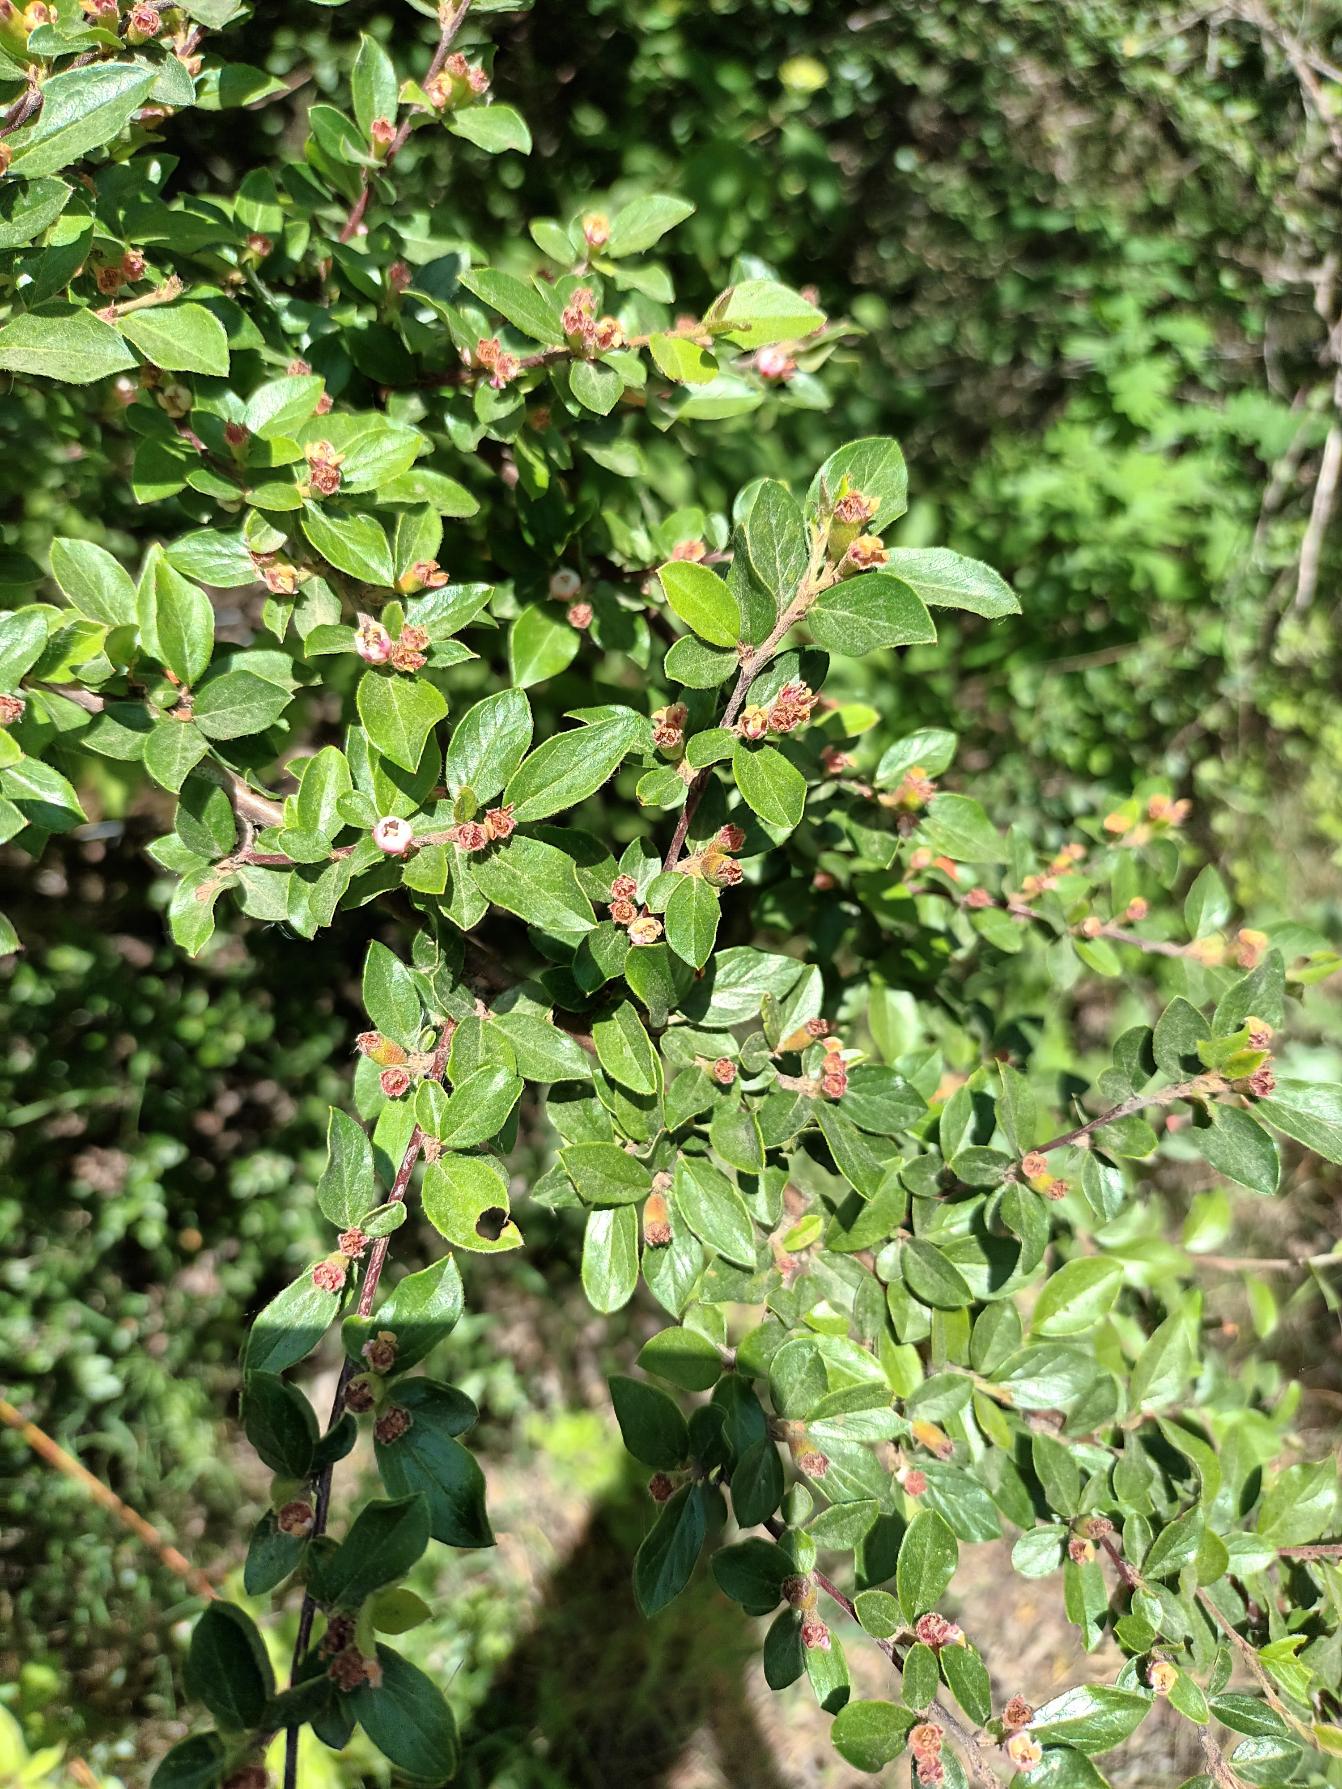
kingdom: Plantae
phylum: Tracheophyta
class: Magnoliopsida
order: Rosales
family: Rosaceae
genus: Cotoneaster
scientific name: Cotoneaster divaricatus
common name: Vifte-dværgmispel
